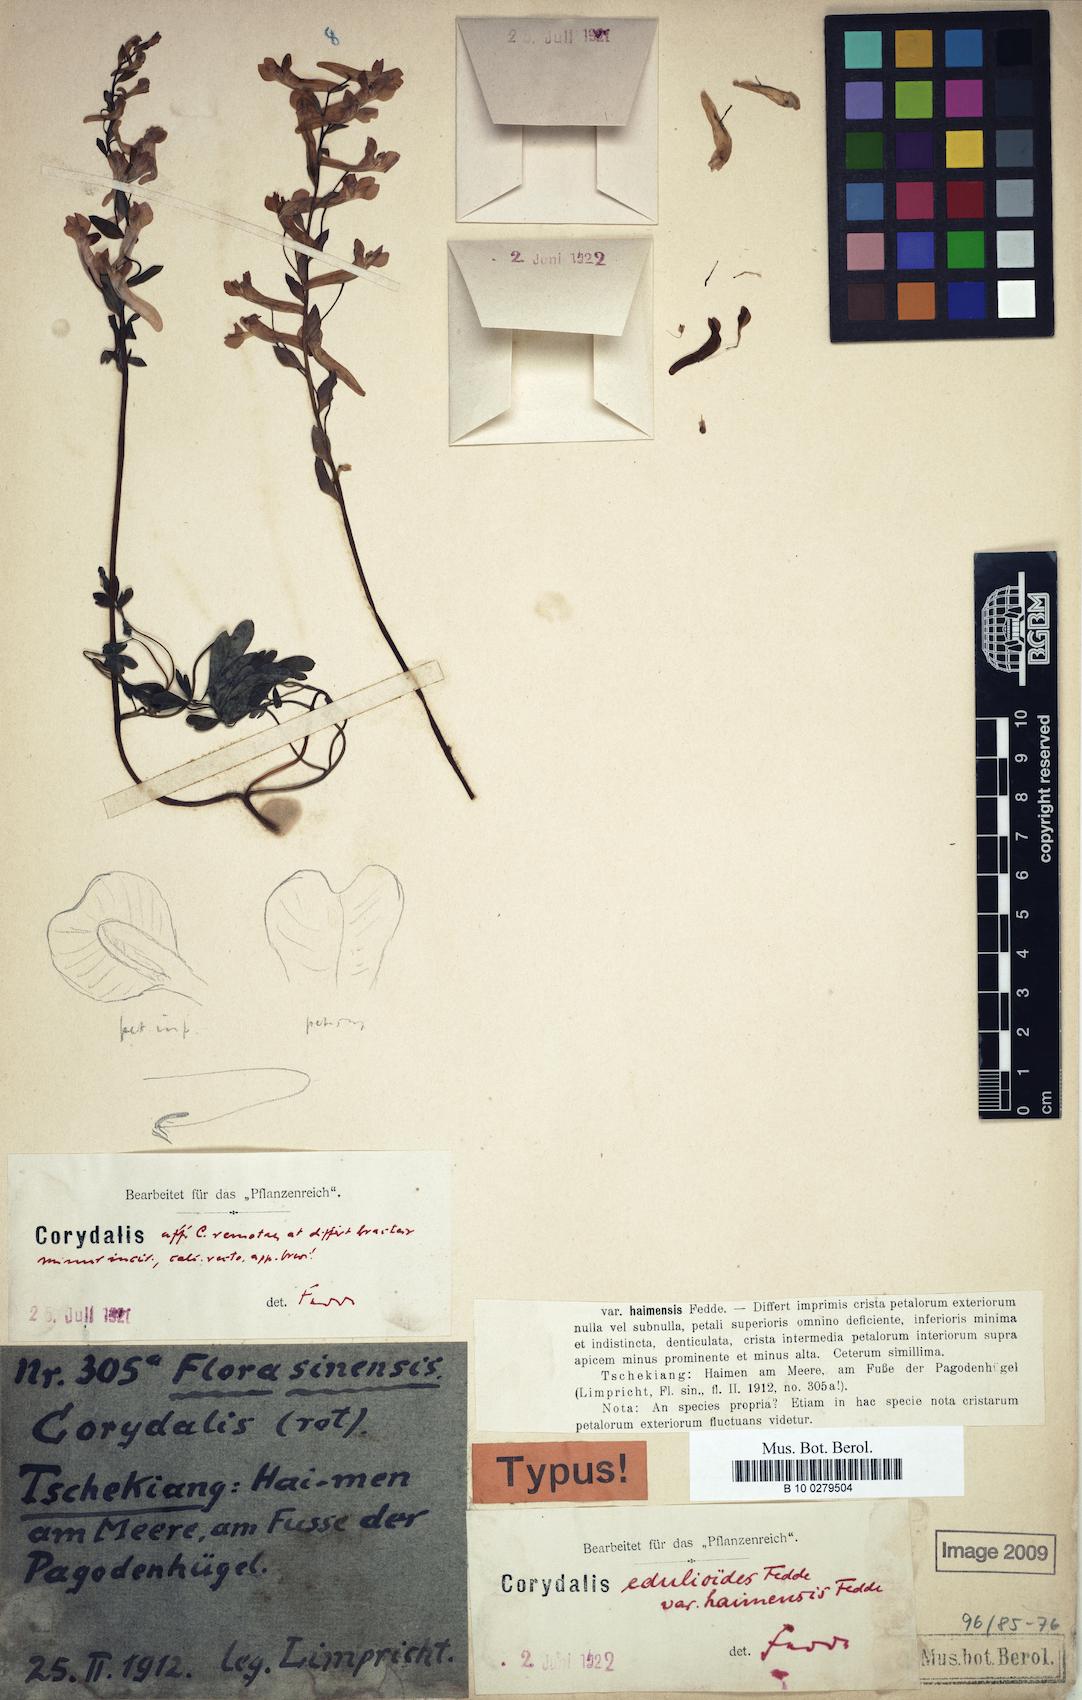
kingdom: Plantae
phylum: Tracheophyta
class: Magnoliopsida
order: Ranunculales
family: Papaveraceae
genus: Corydalis
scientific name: Corydalis decumbens
